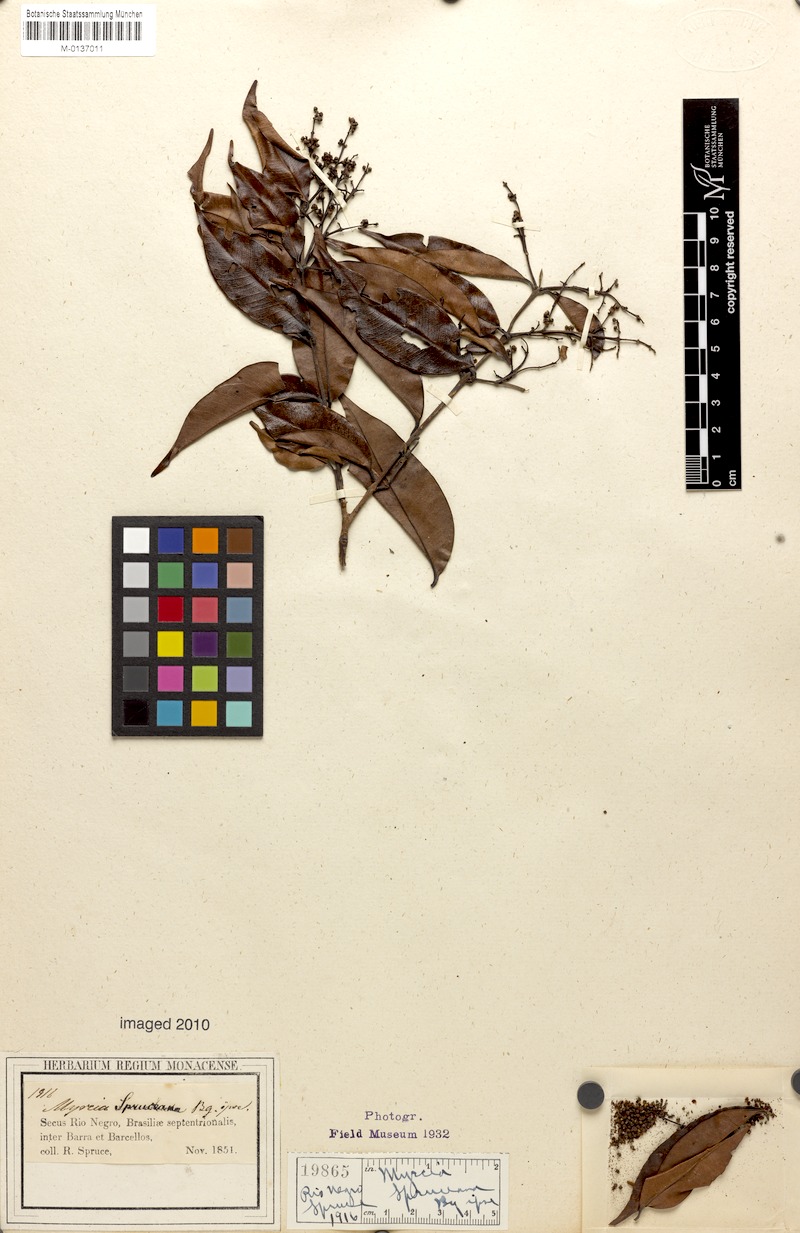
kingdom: Plantae
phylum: Tracheophyta
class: Magnoliopsida
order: Myrtales
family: Myrtaceae
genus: Myrcia
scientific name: Myrcia splendens
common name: Surinam cherry
